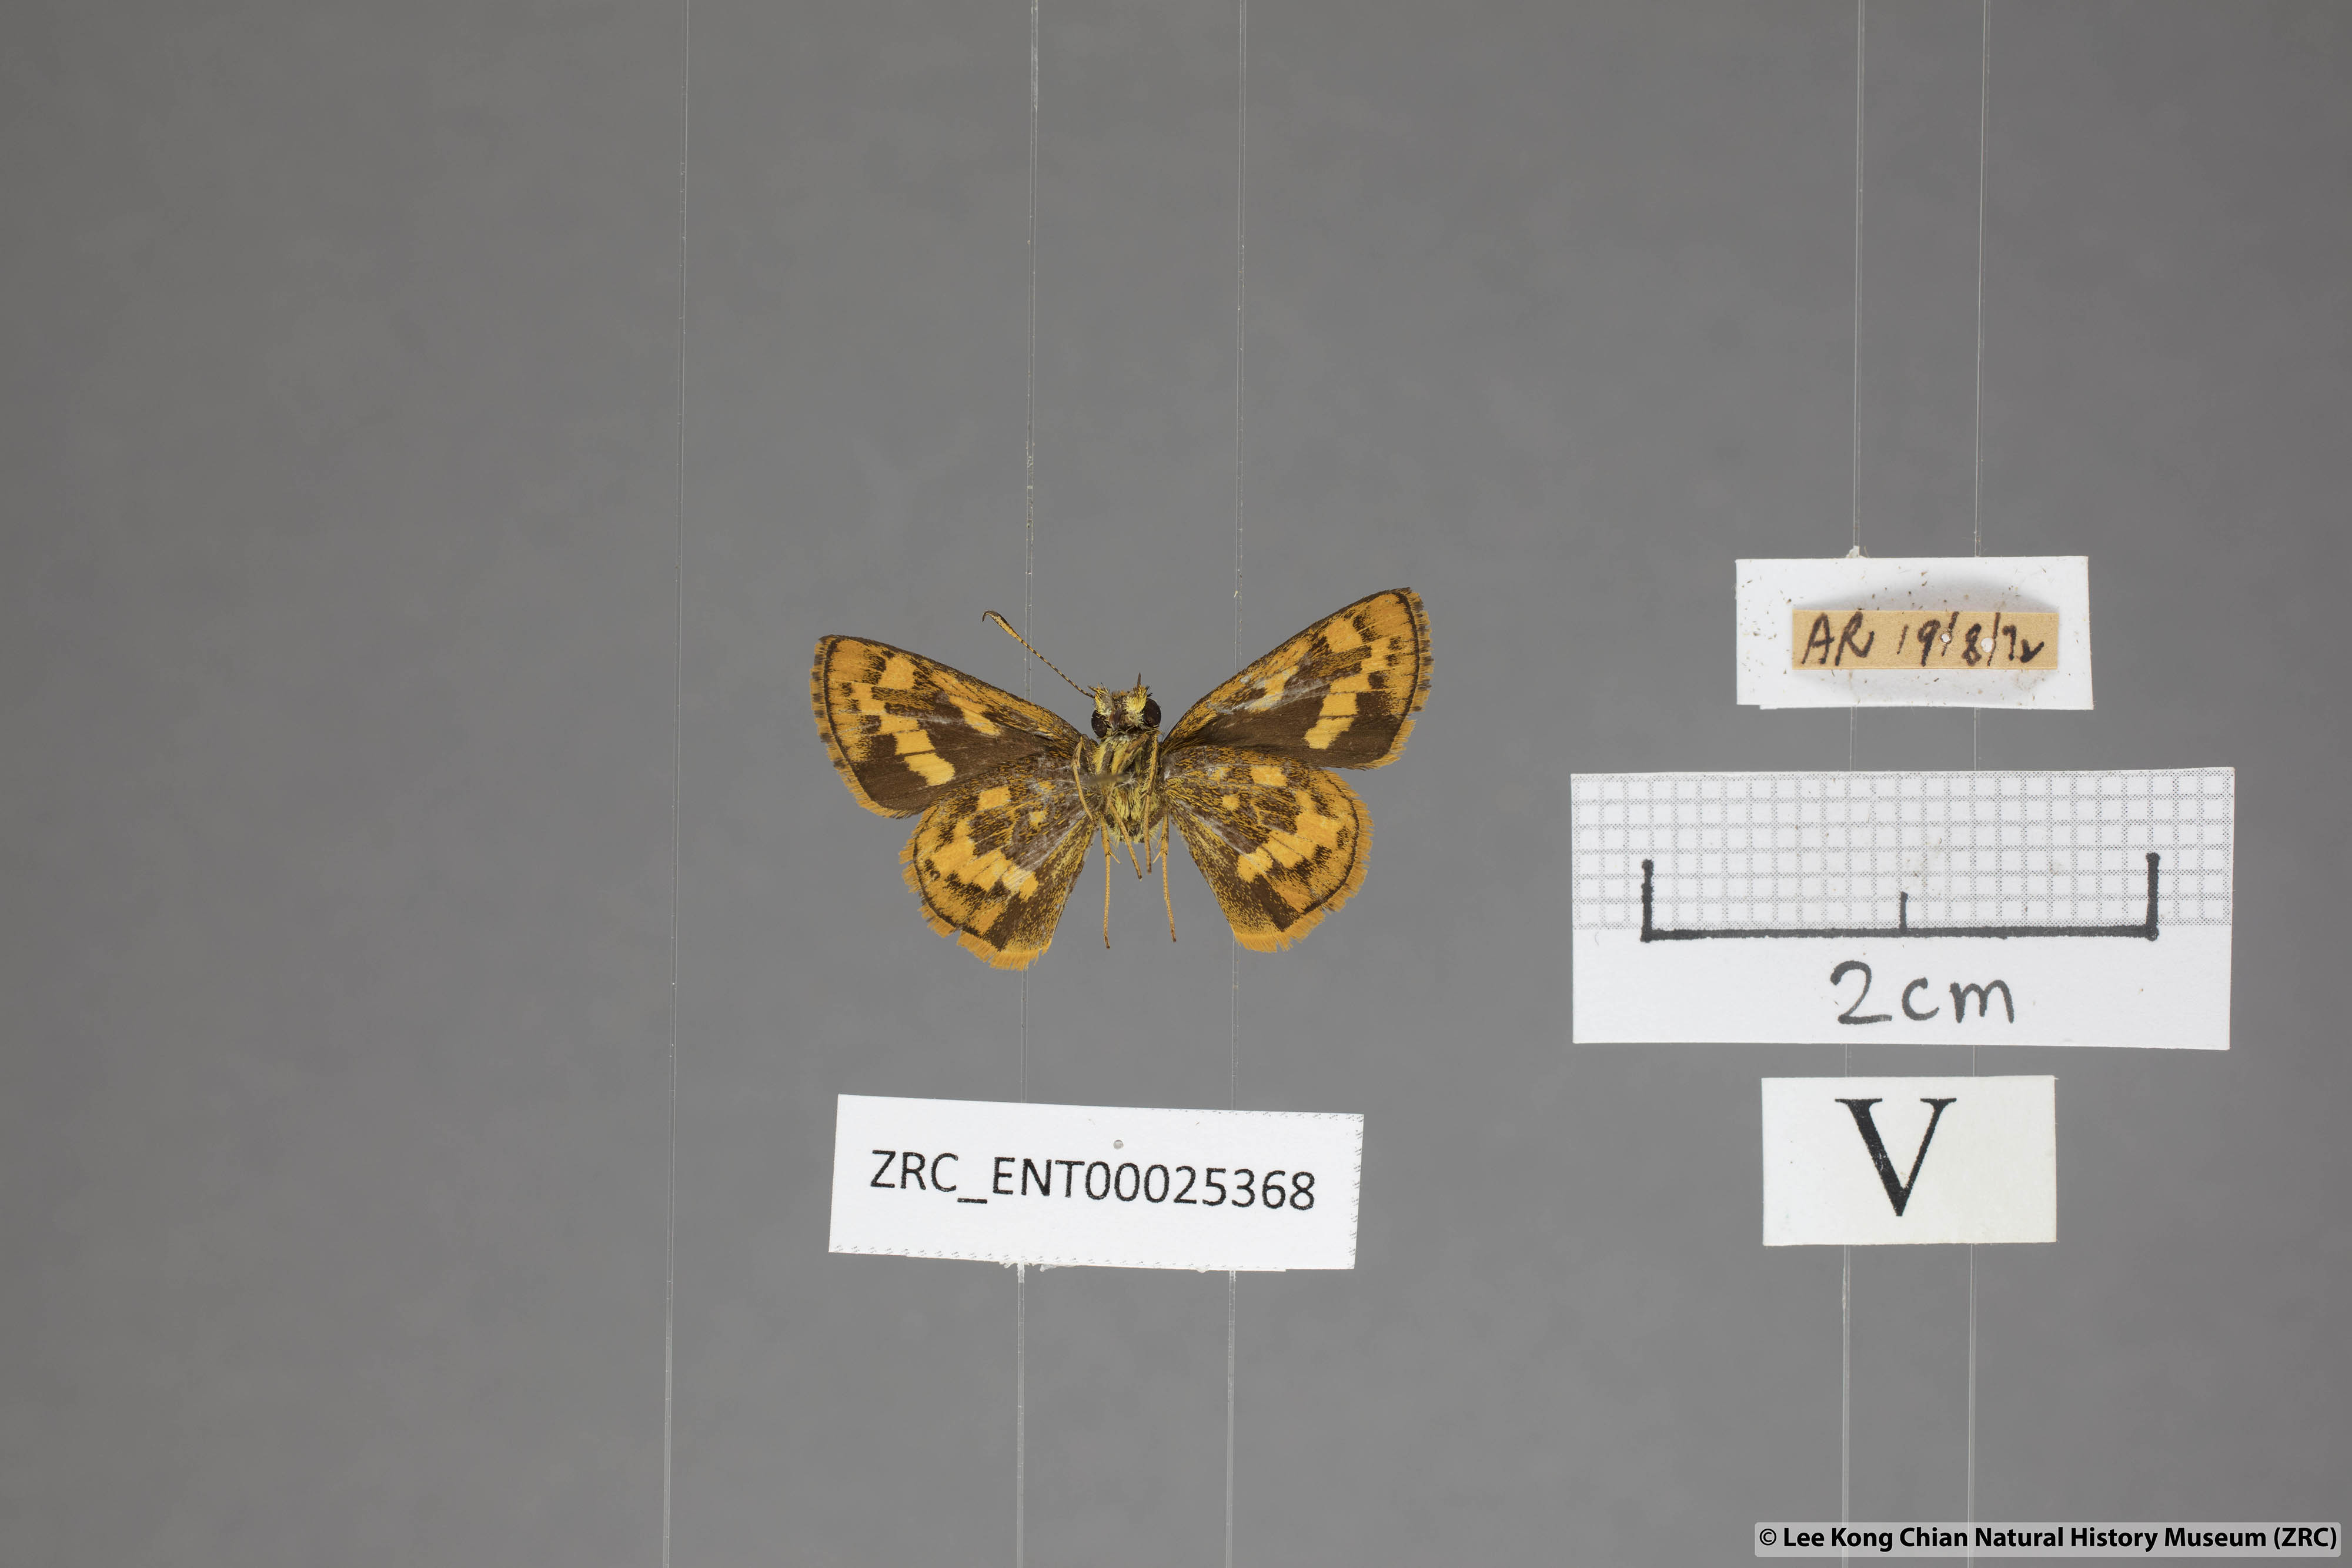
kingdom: Animalia
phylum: Arthropoda
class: Insecta
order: Lepidoptera
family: Hesperiidae
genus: Potanthus
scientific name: Potanthus ganda
